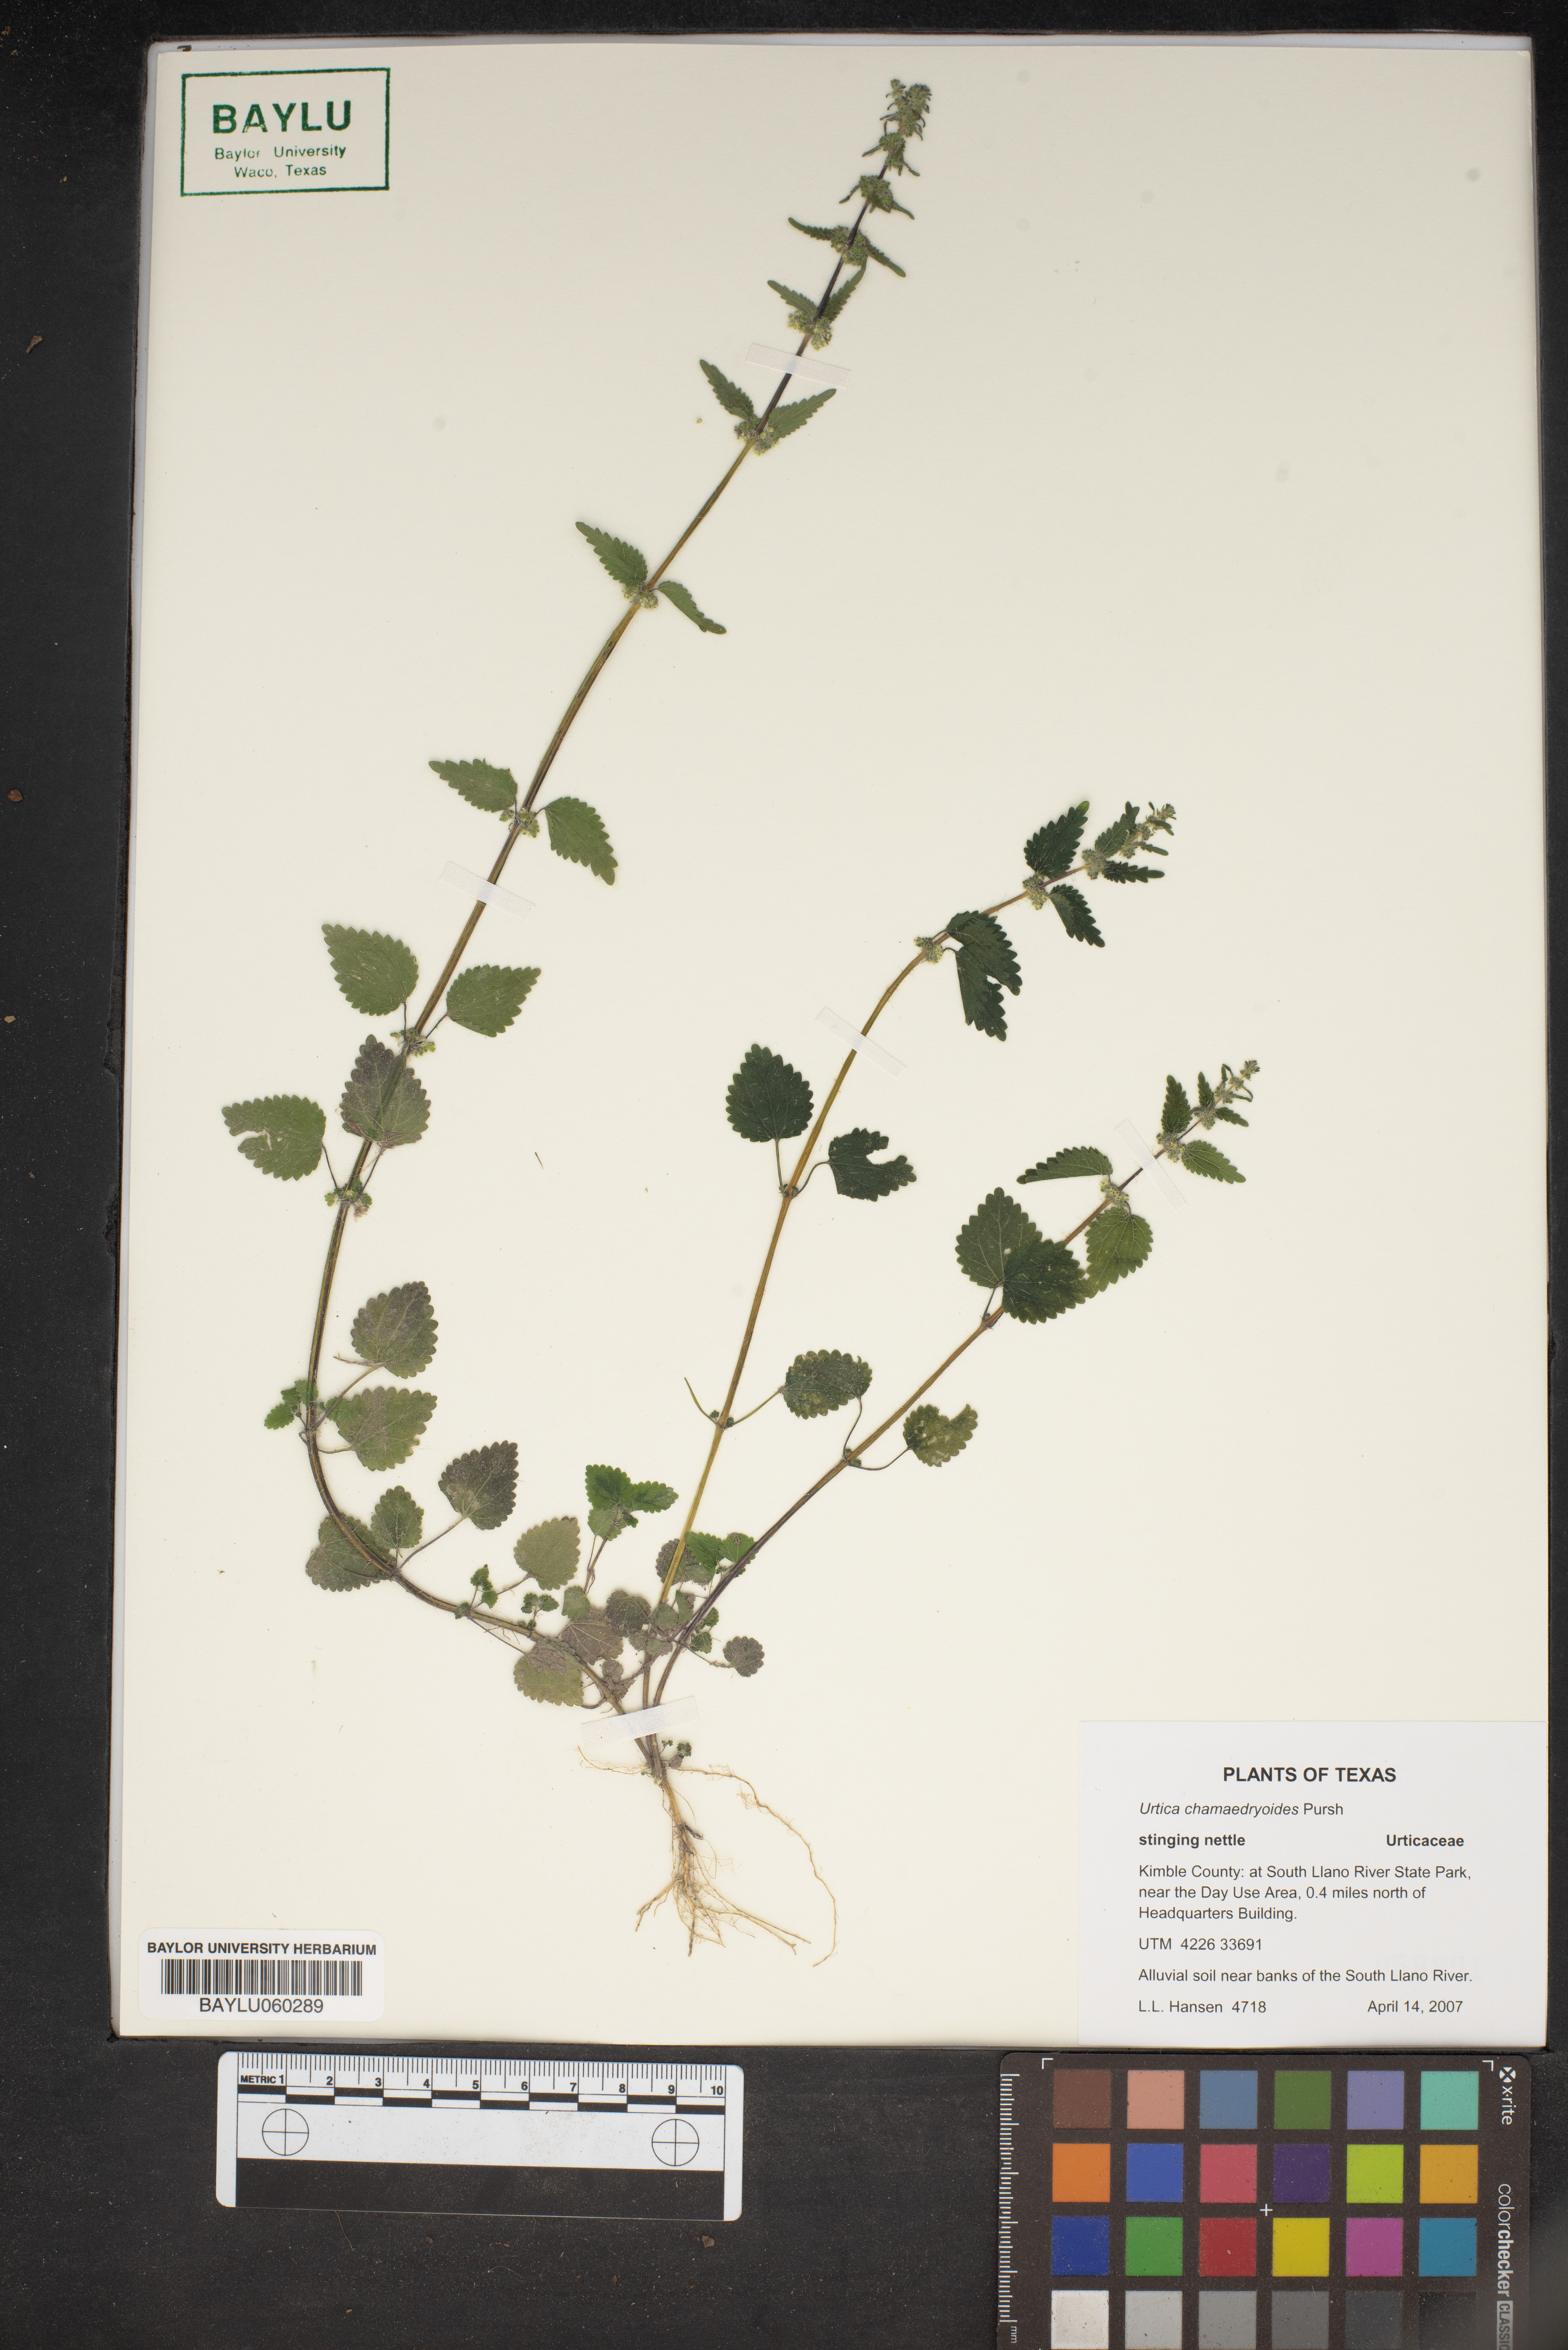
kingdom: Plantae
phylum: Tracheophyta
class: Magnoliopsida
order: Rosales
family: Urticaceae
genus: Urtica
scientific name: Urtica chamaedryoides
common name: Heart-leaf nettle
